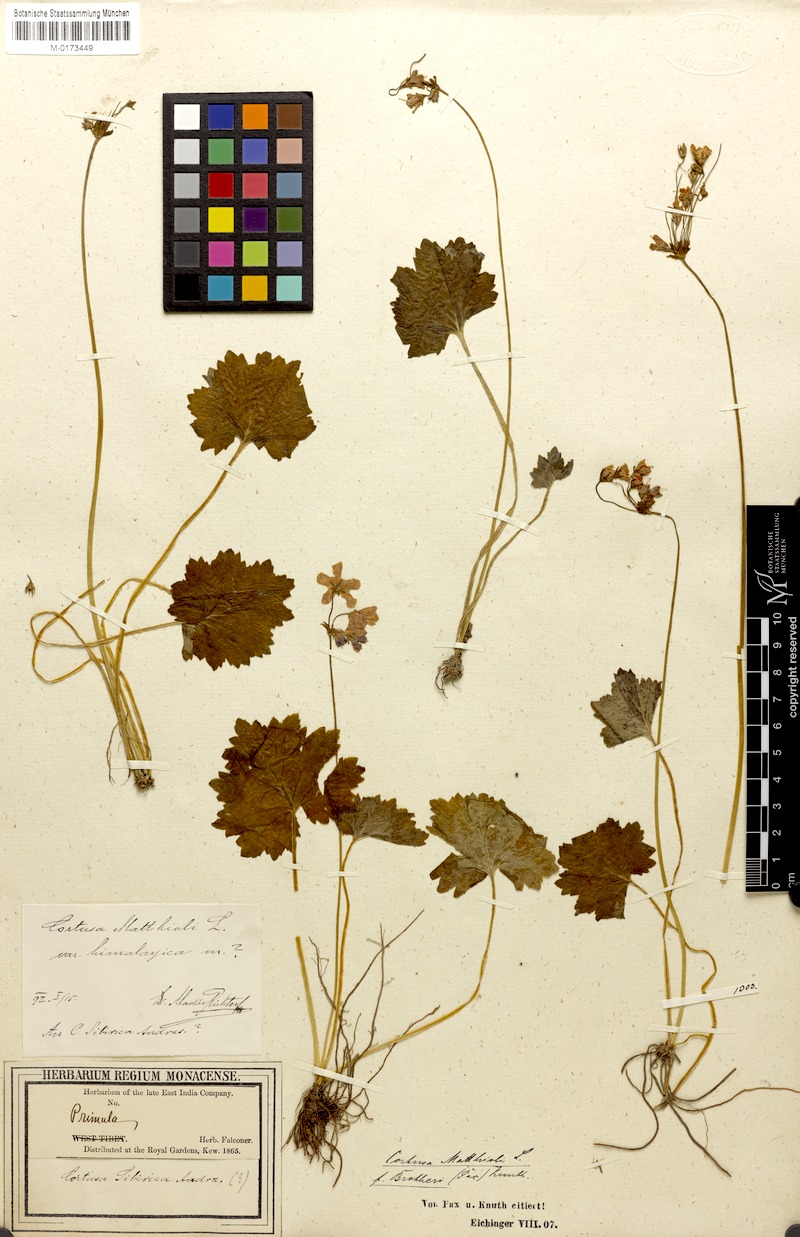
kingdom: Plantae
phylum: Tracheophyta
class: Magnoliopsida
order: Ericales
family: Primulaceae
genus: Primula
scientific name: Primula Cortusa brotheri
